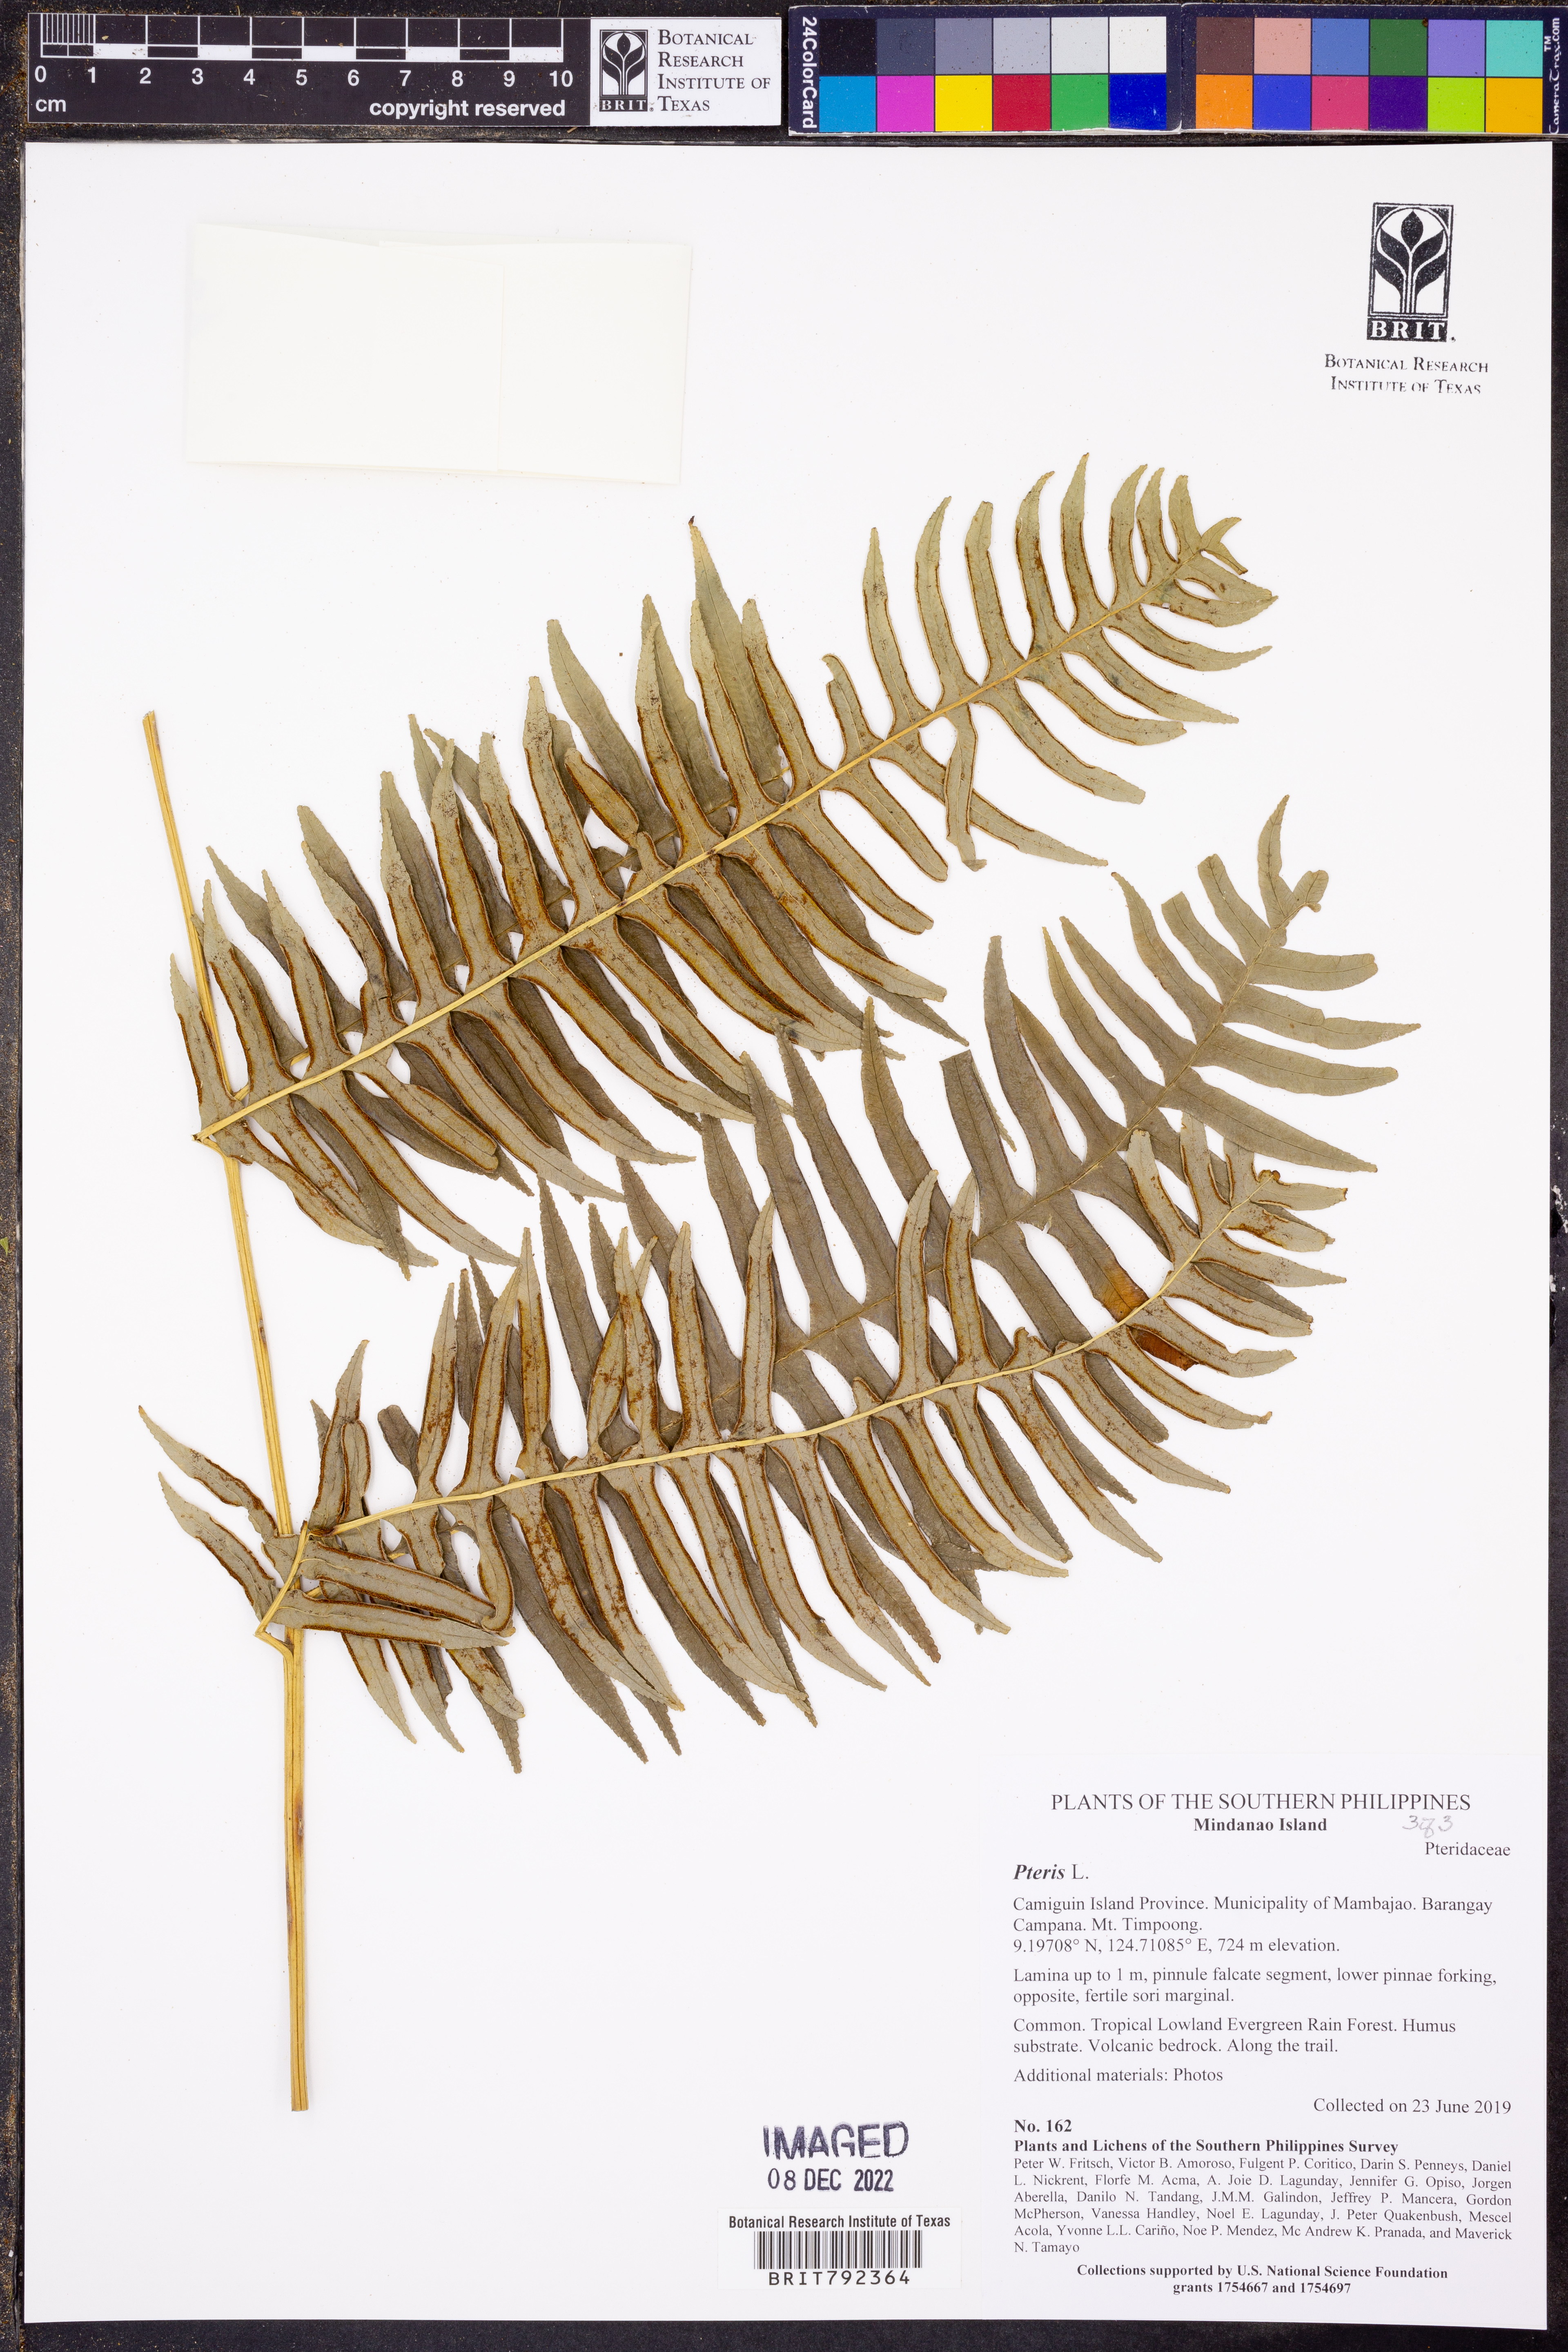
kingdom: Plantae
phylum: Tracheophyta
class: Polypodiopsida
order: Polypodiales
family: Pteridaceae
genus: Pteris
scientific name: Pteris
